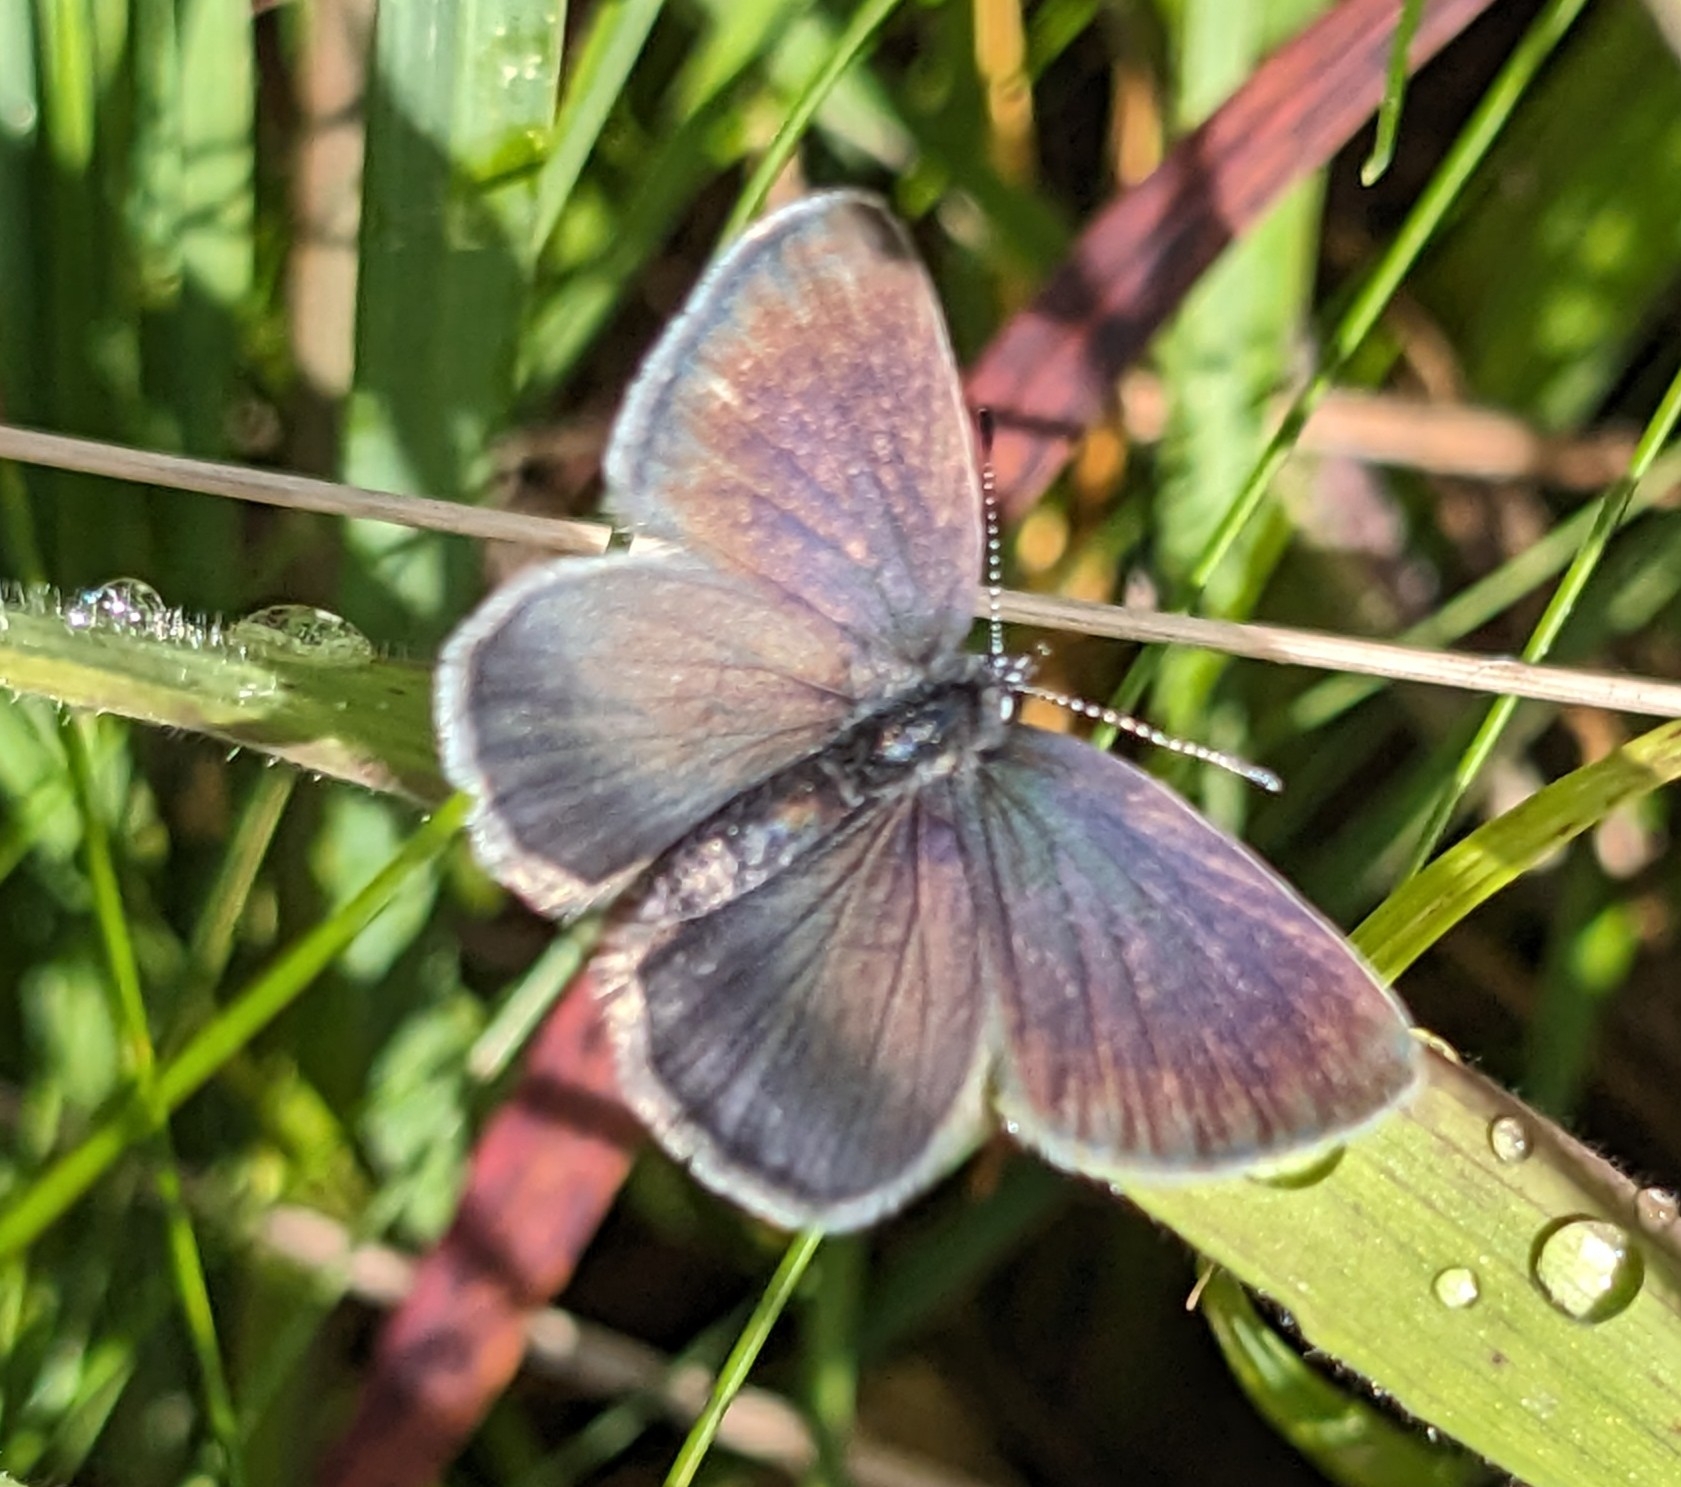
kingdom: Animalia
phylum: Arthropoda
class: Insecta
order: Lepidoptera
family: Lycaenidae
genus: Cupido
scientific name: Cupido minimus
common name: Dværgblåfugl
